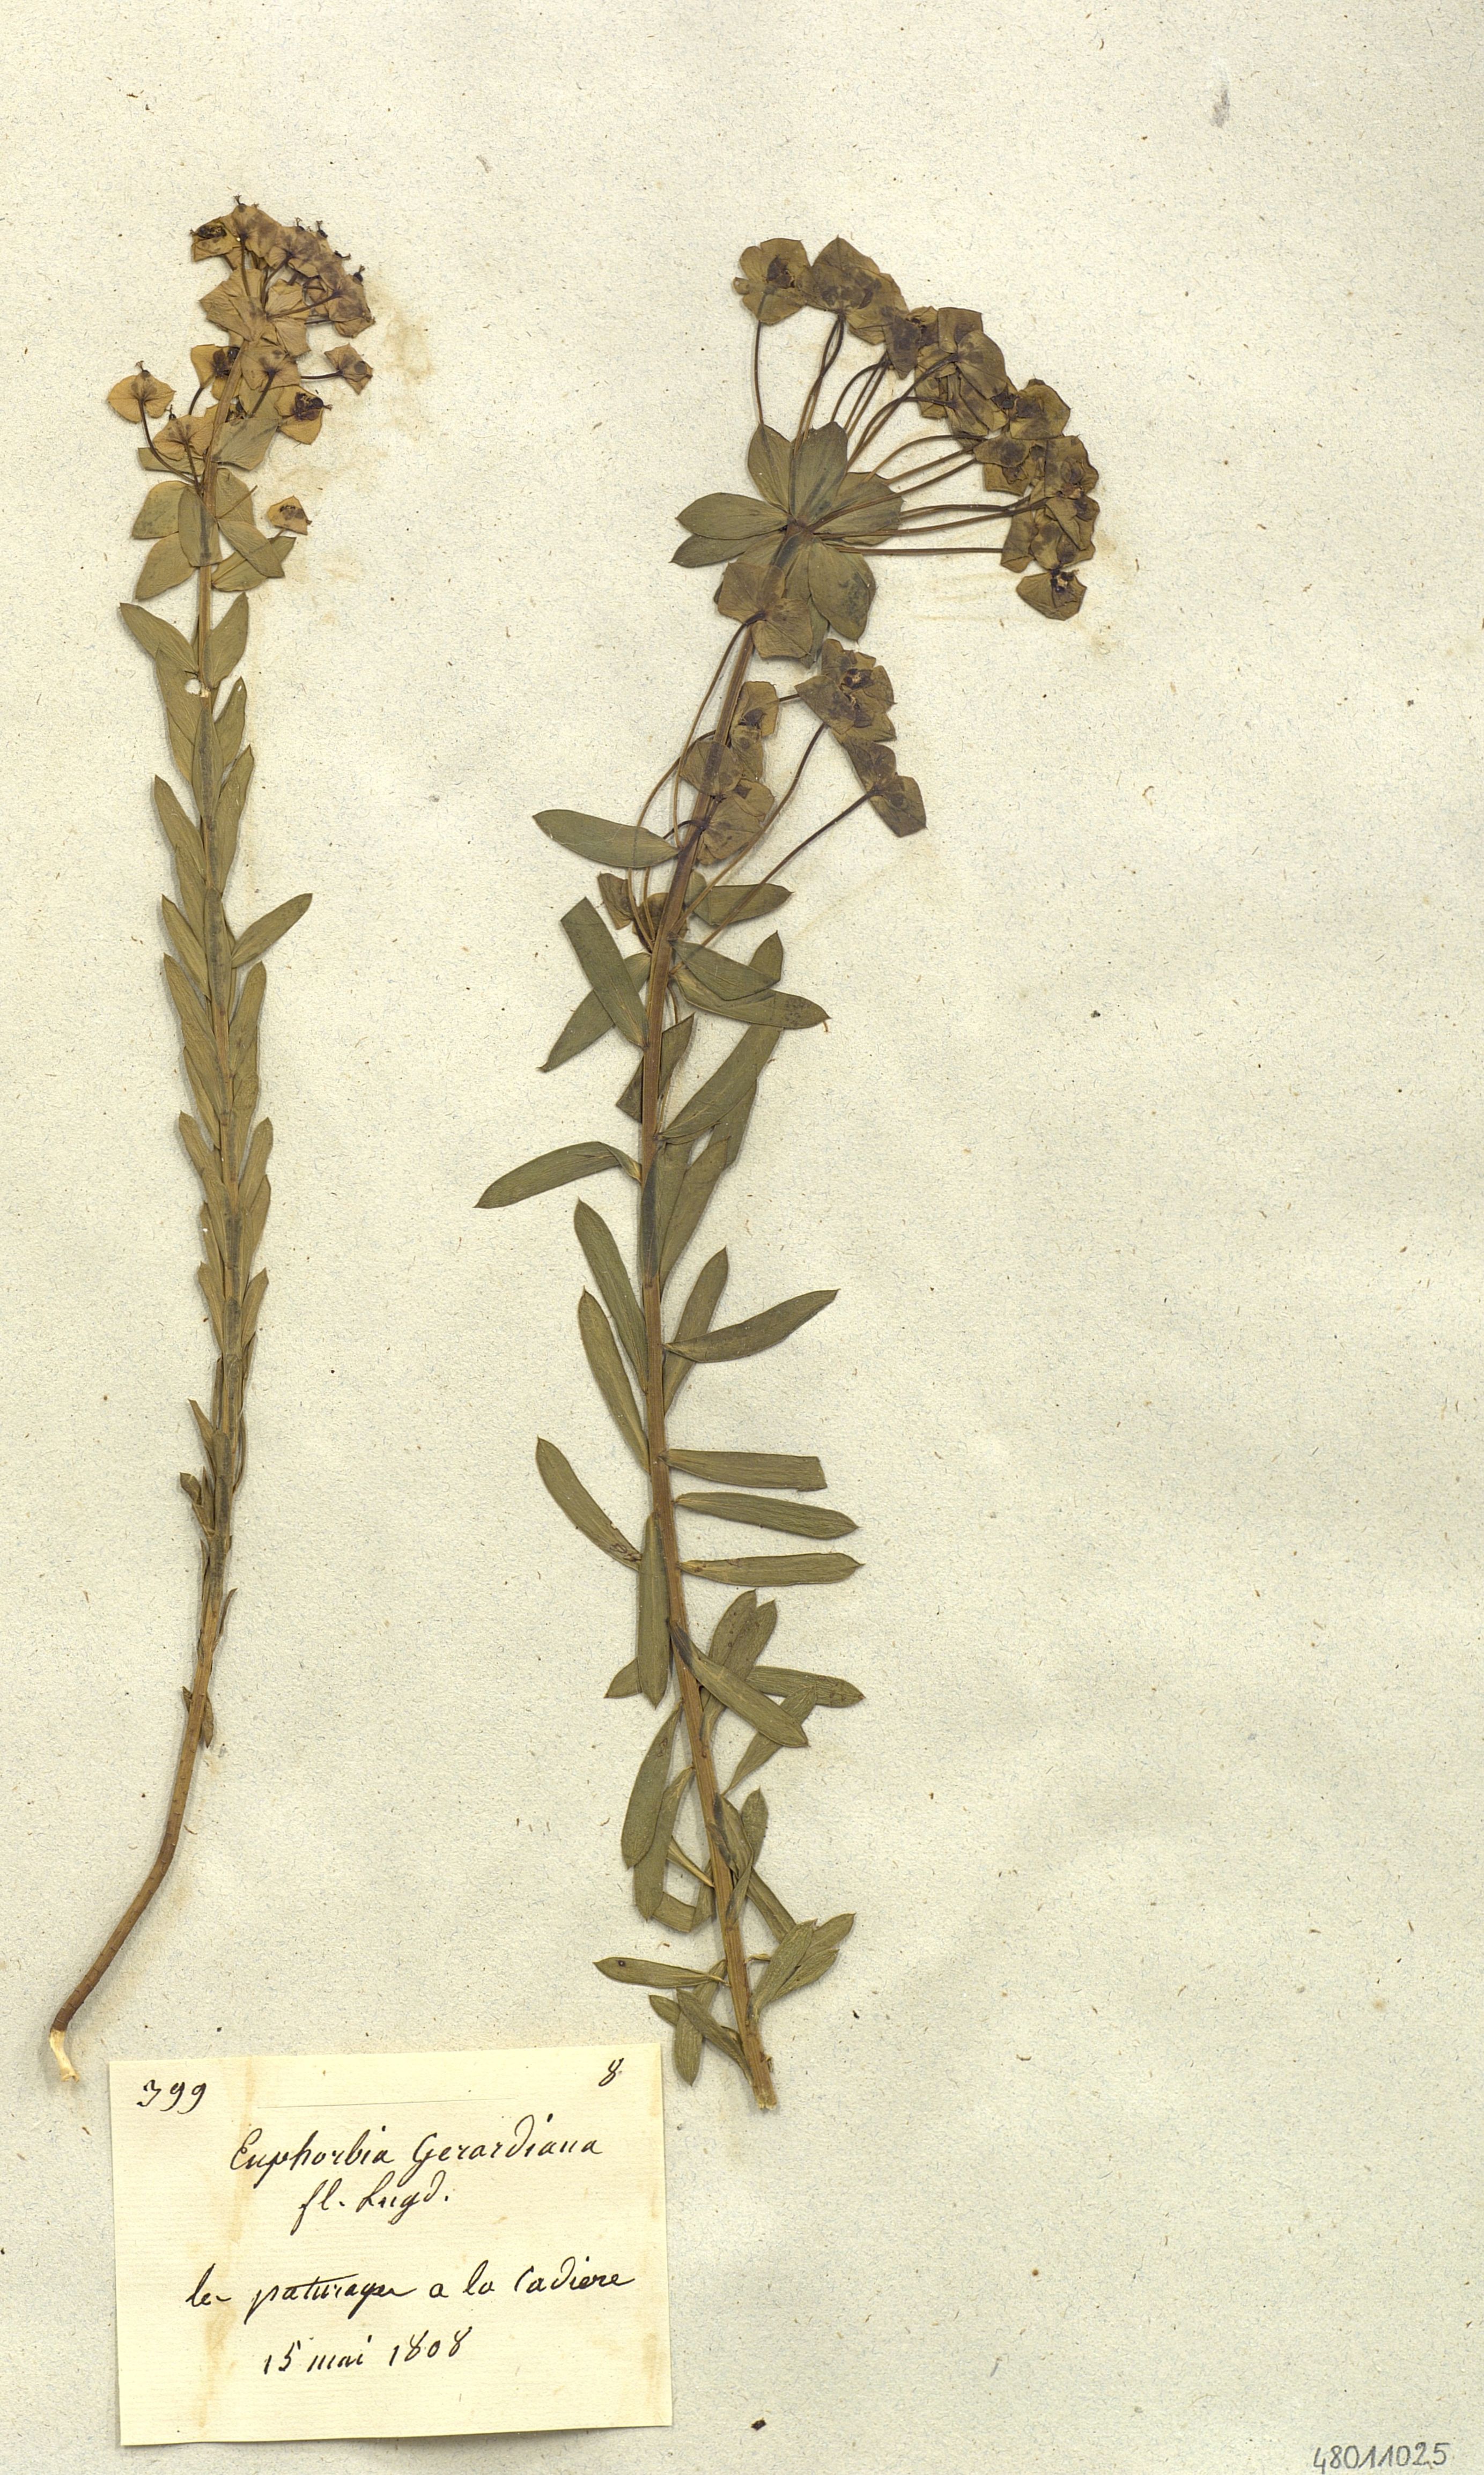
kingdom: Plantae
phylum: Tracheophyta
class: Magnoliopsida
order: Malpighiales
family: Euphorbiaceae
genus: Euphorbia
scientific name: Euphorbia seguieriana
